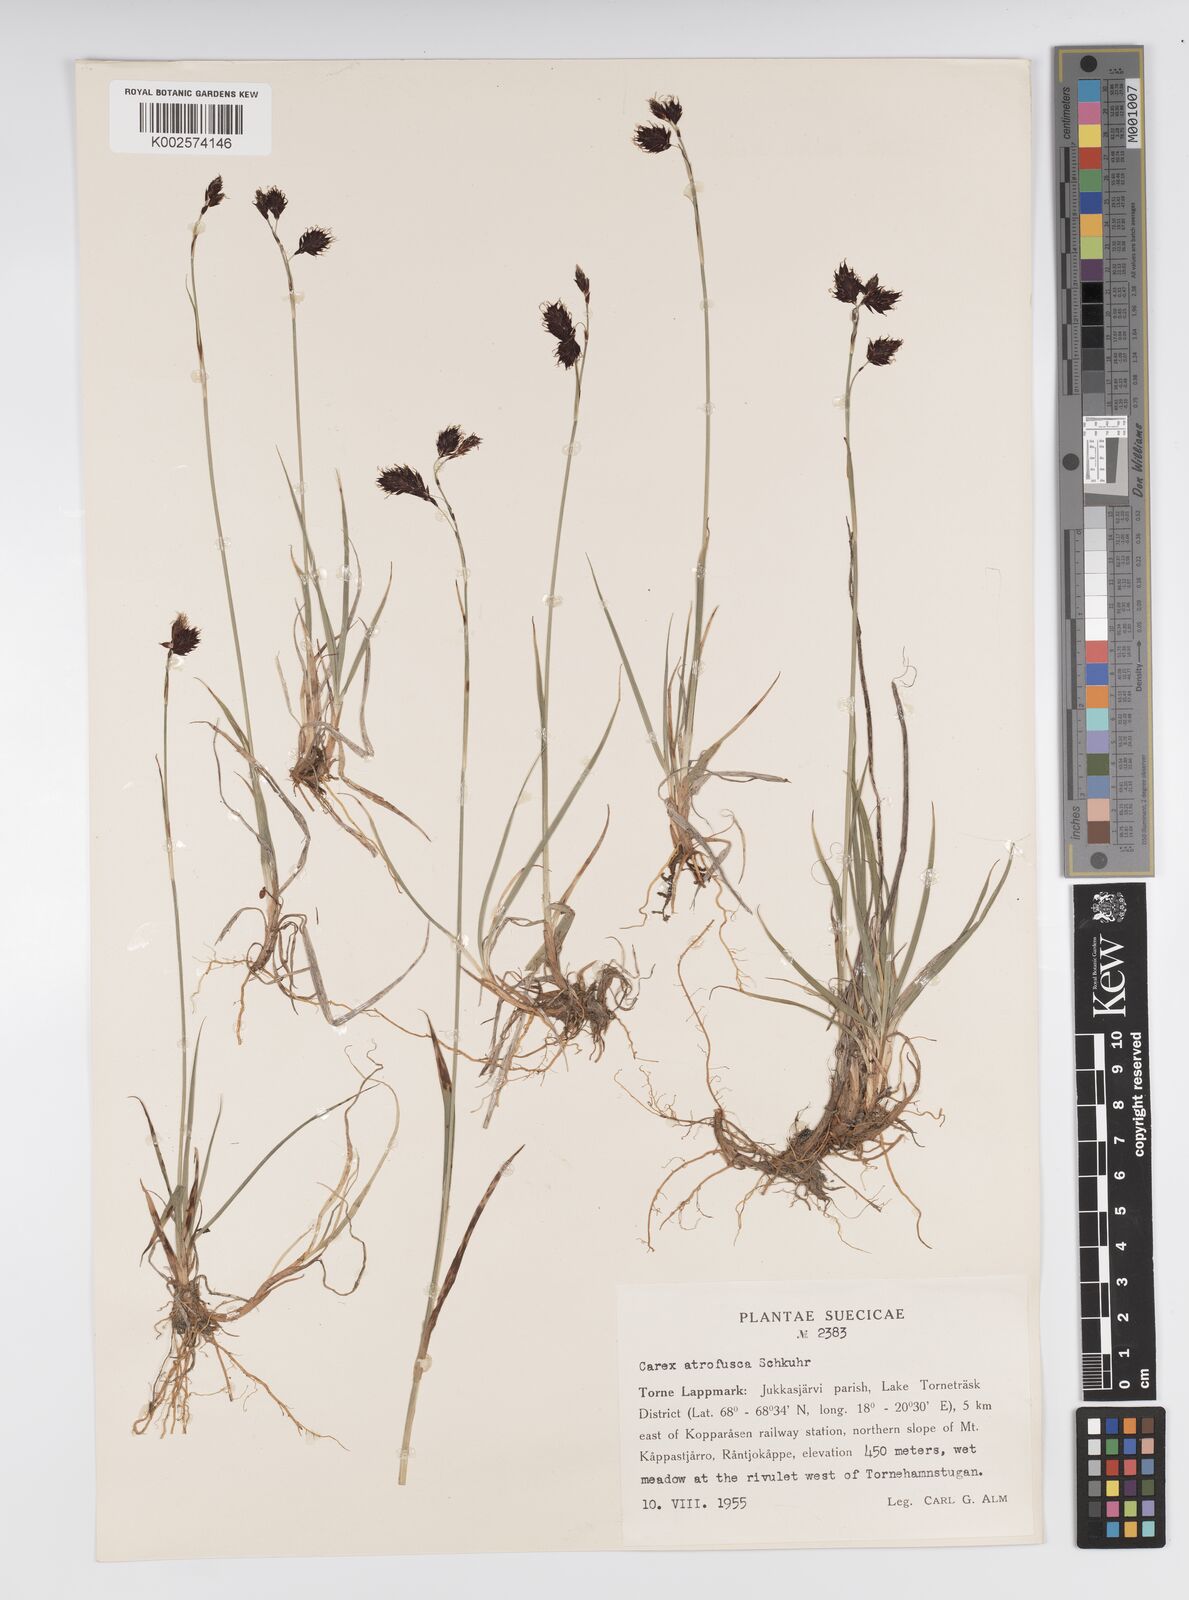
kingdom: Plantae
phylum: Tracheophyta
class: Liliopsida
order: Poales
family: Cyperaceae
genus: Carex
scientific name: Carex atrofusca
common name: Scorched alpine-sedge
